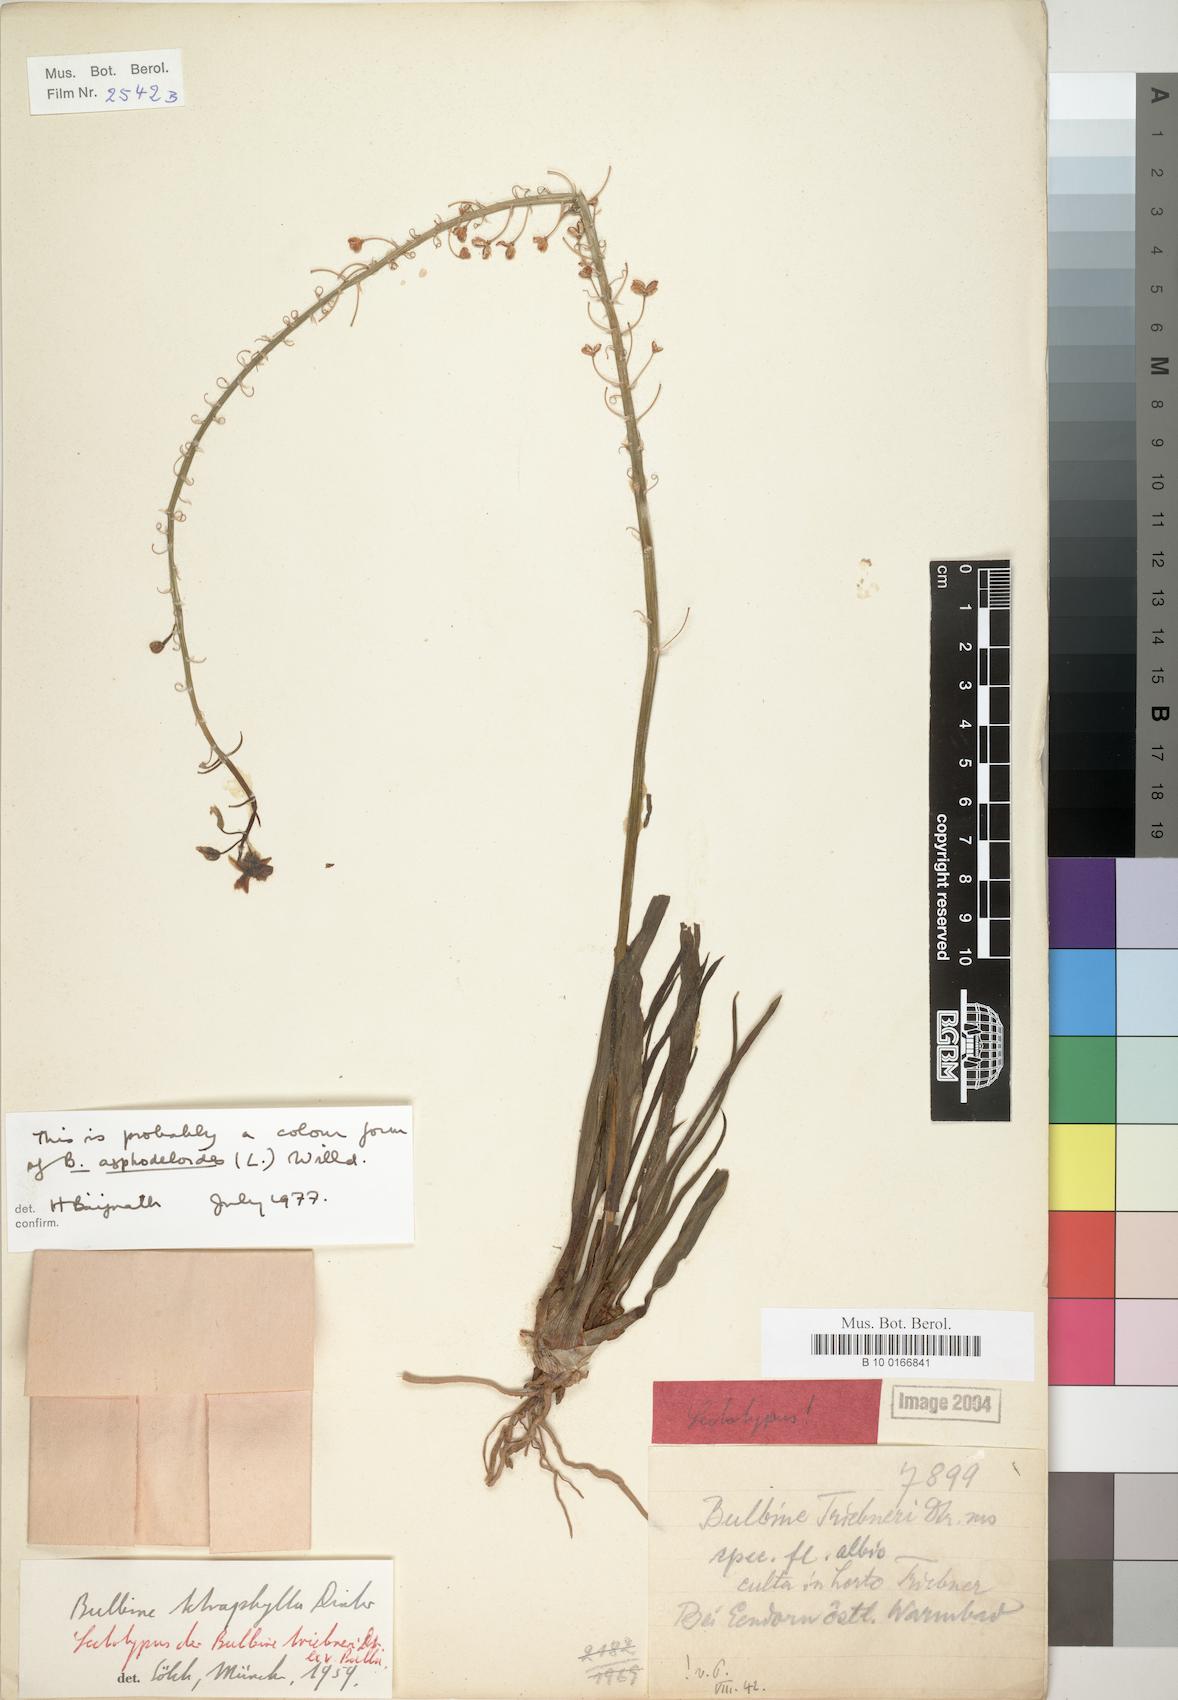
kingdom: Plantae
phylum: Tracheophyta
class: Liliopsida
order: Asparagales
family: Asphodelaceae
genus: Bulbine
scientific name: Bulbine asphodeloides
